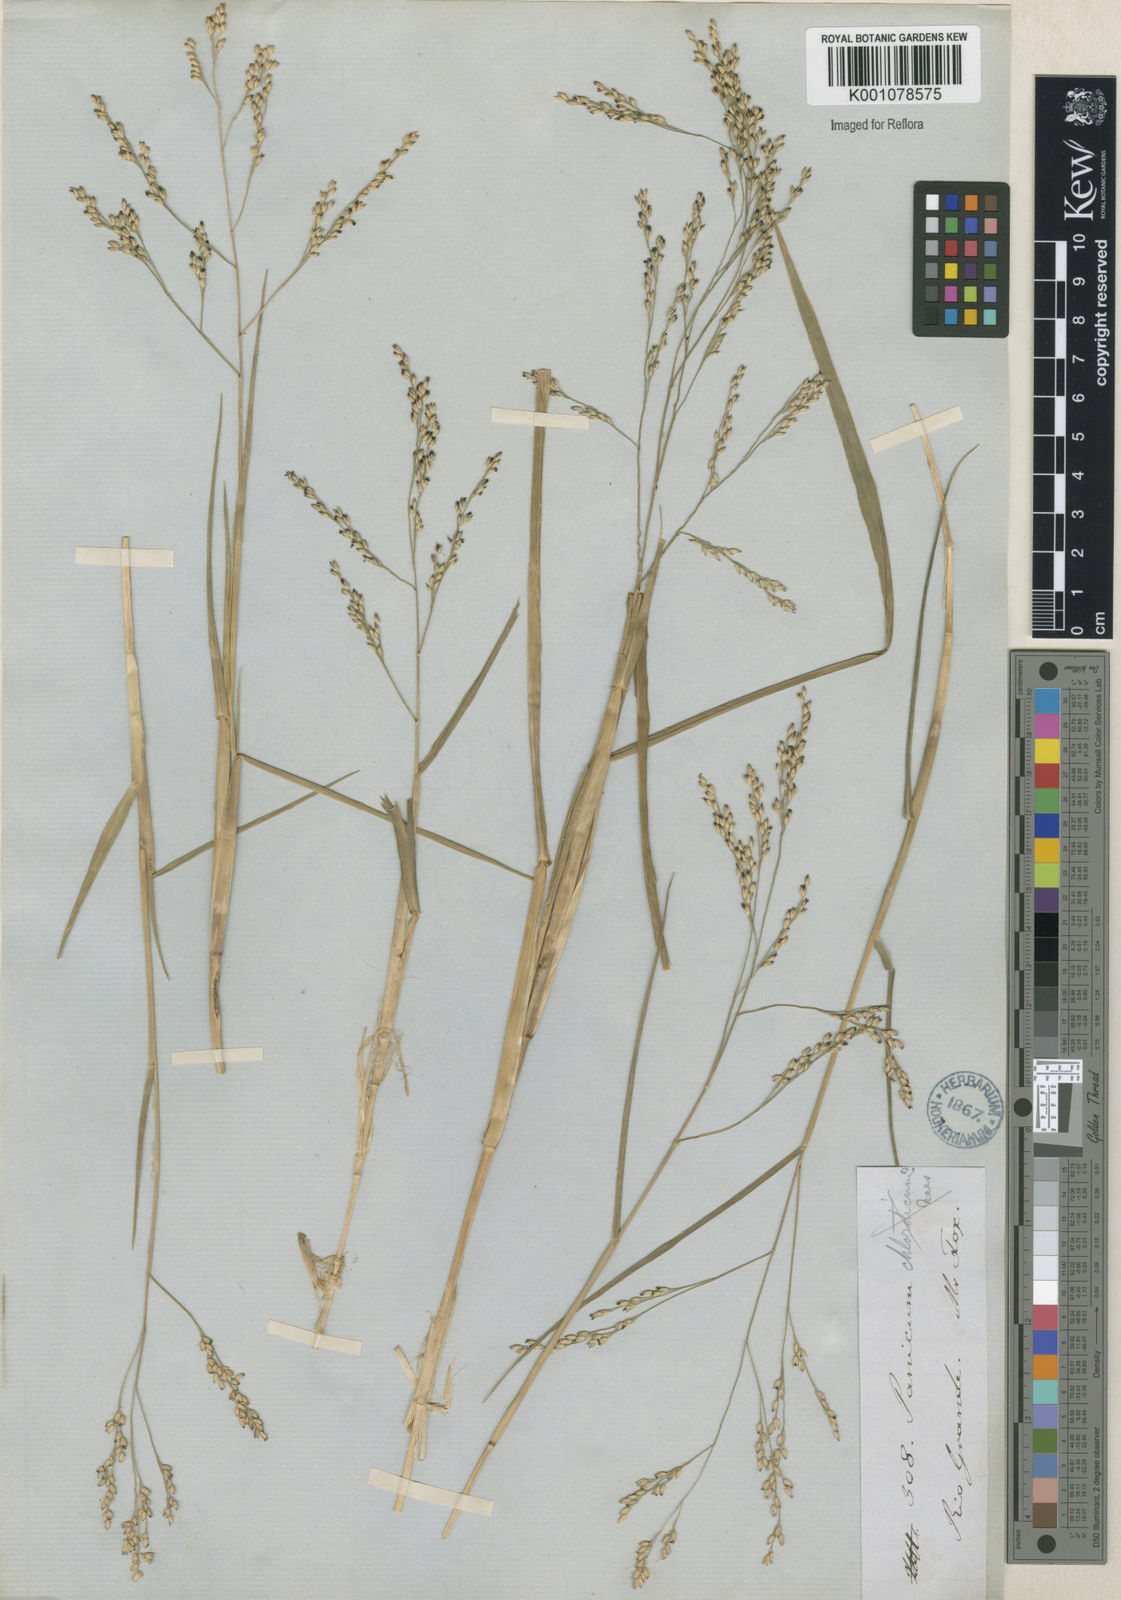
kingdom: Plantae
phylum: Tracheophyta
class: Liliopsida
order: Poales
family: Poaceae
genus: Panicum
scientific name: Panicum dichotomiflorum
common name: Autumn millet
